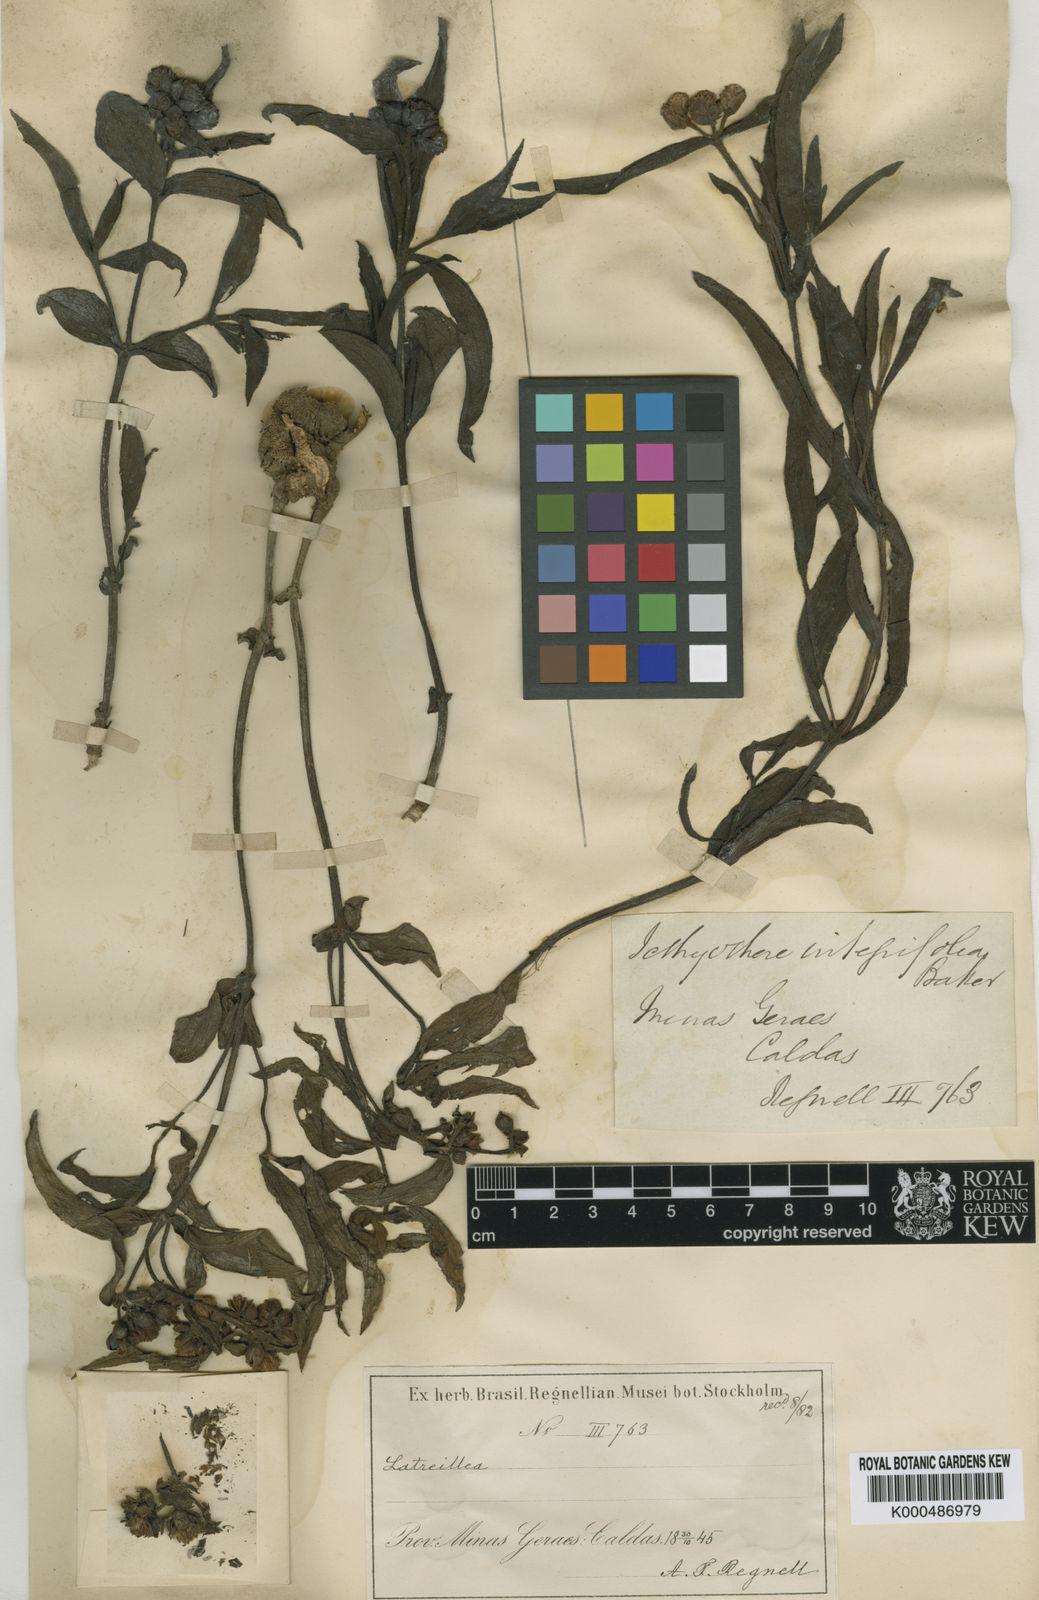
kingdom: Plantae
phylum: Tracheophyta
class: Magnoliopsida
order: Asterales
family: Asteraceae
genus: Ichthyothere
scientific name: Ichthyothere integrifolia
